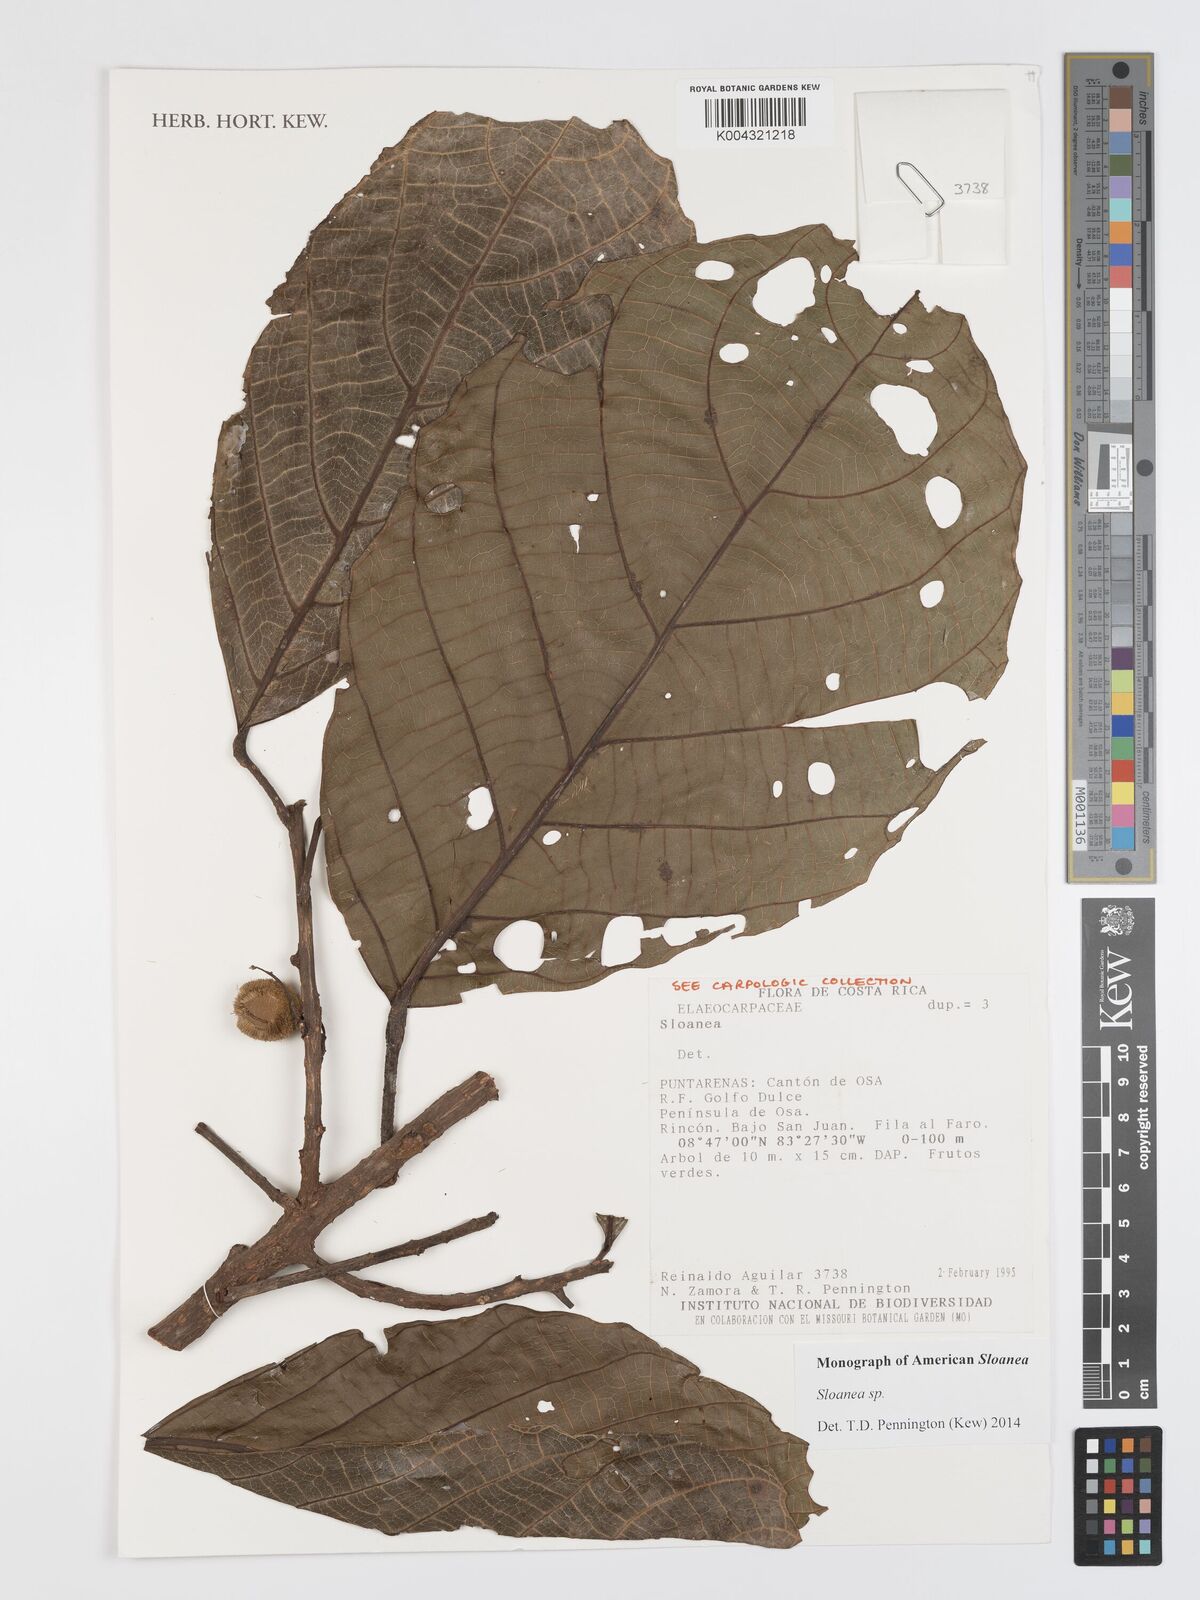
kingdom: Plantae
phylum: Tracheophyta
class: Magnoliopsida
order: Oxalidales
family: Elaeocarpaceae
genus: Sloanea
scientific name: Sloanea
